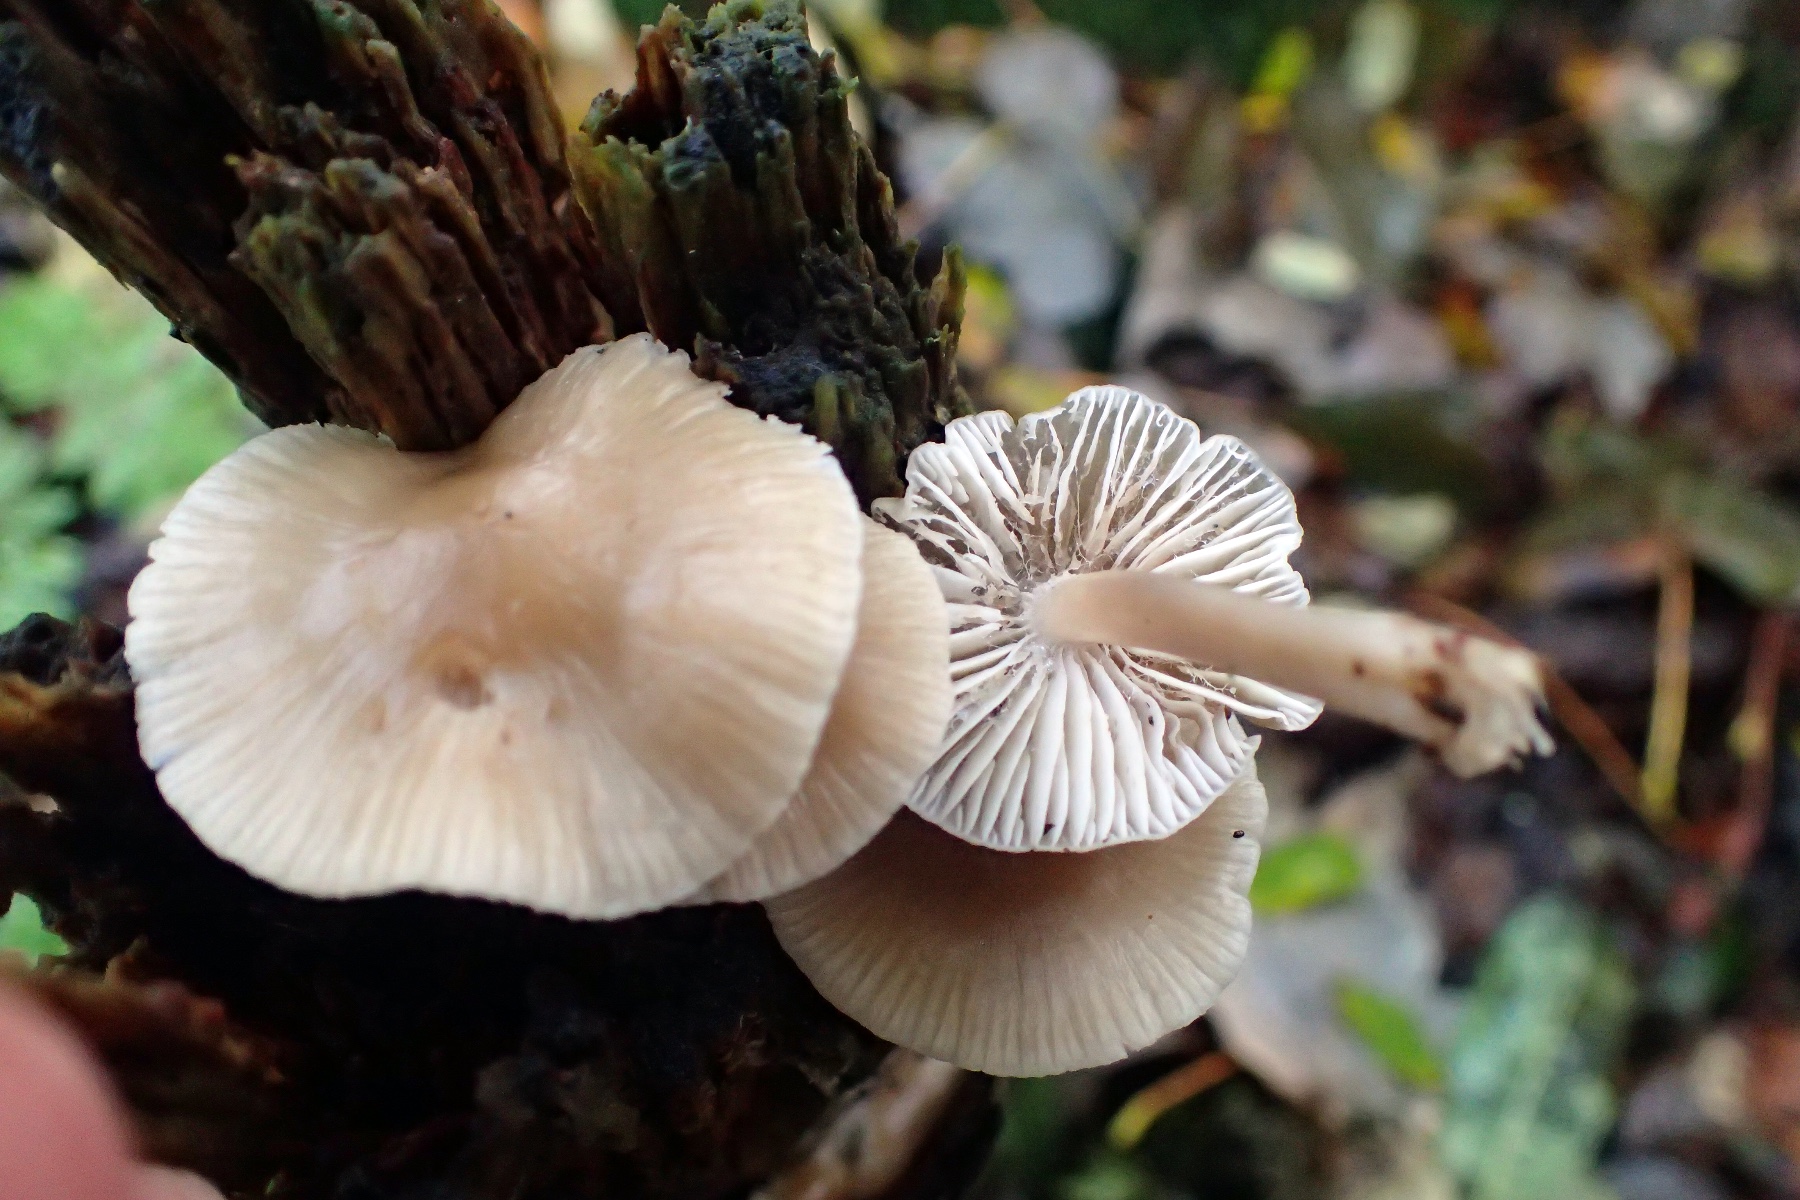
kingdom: Fungi
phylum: Basidiomycota
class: Agaricomycetes
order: Agaricales
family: Mycenaceae
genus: Mycena
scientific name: Mycena galericulata
